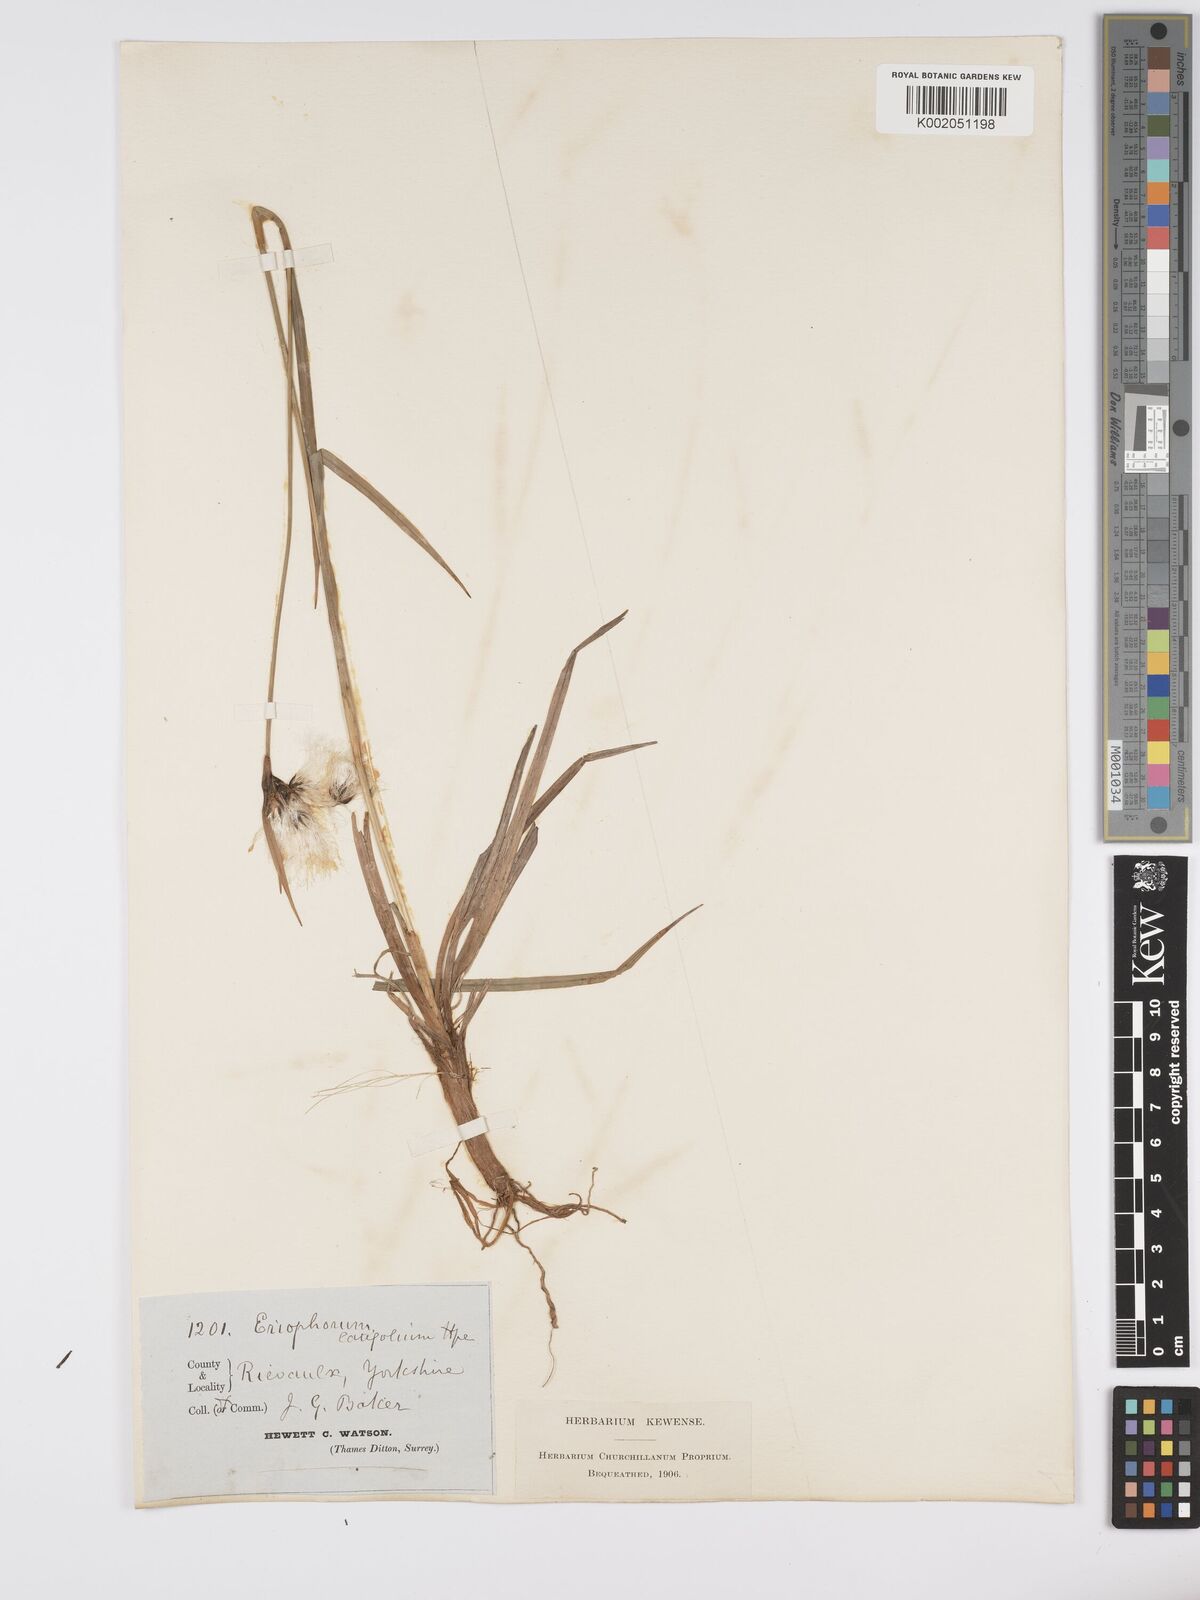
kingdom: Plantae
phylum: Tracheophyta
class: Liliopsida
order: Poales
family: Cyperaceae
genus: Eriophorum
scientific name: Eriophorum latifolium
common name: Broad-leaved cottongrass
